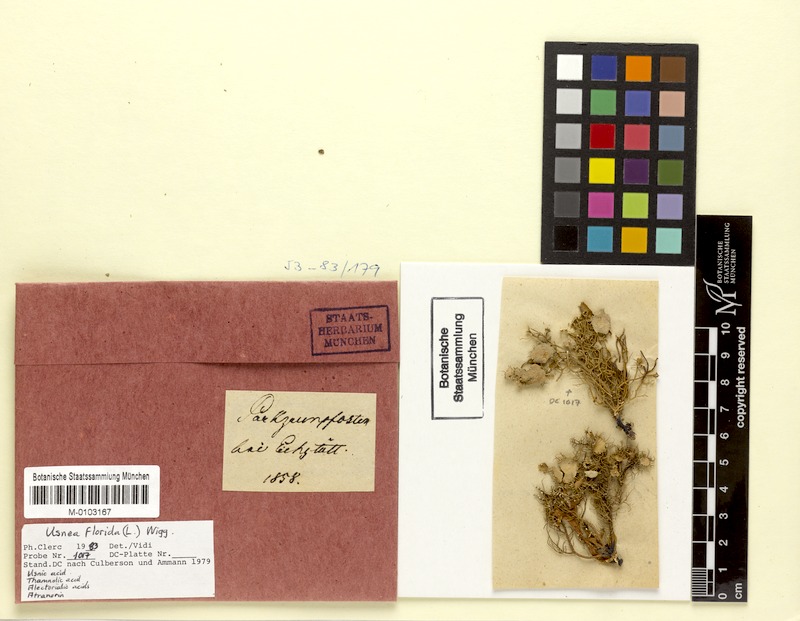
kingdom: Fungi
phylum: Ascomycota
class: Lecanoromycetes
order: Lecanorales
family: Parmeliaceae
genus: Usnea
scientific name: Usnea florida
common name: Witches' whiskers lichen
